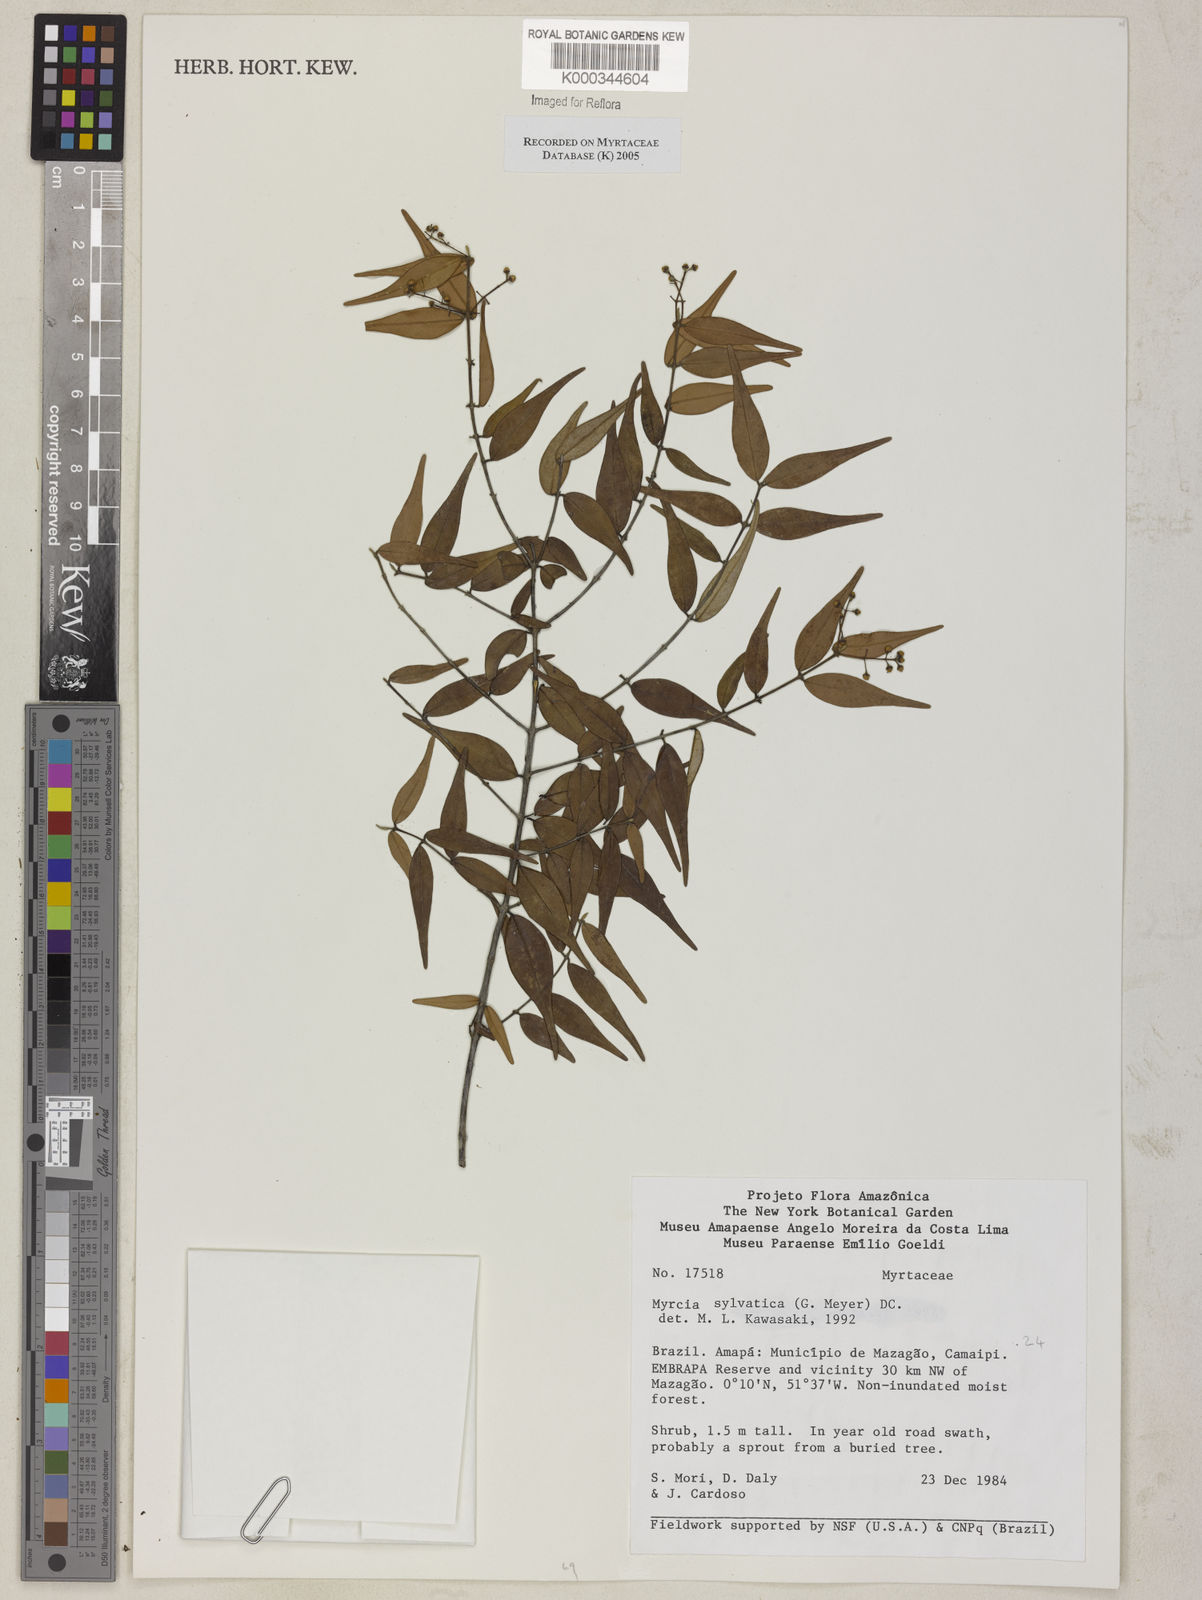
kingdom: Plantae
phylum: Tracheophyta
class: Magnoliopsida
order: Myrtales
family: Myrtaceae
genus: Myrcia
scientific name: Myrcia sylvatica
